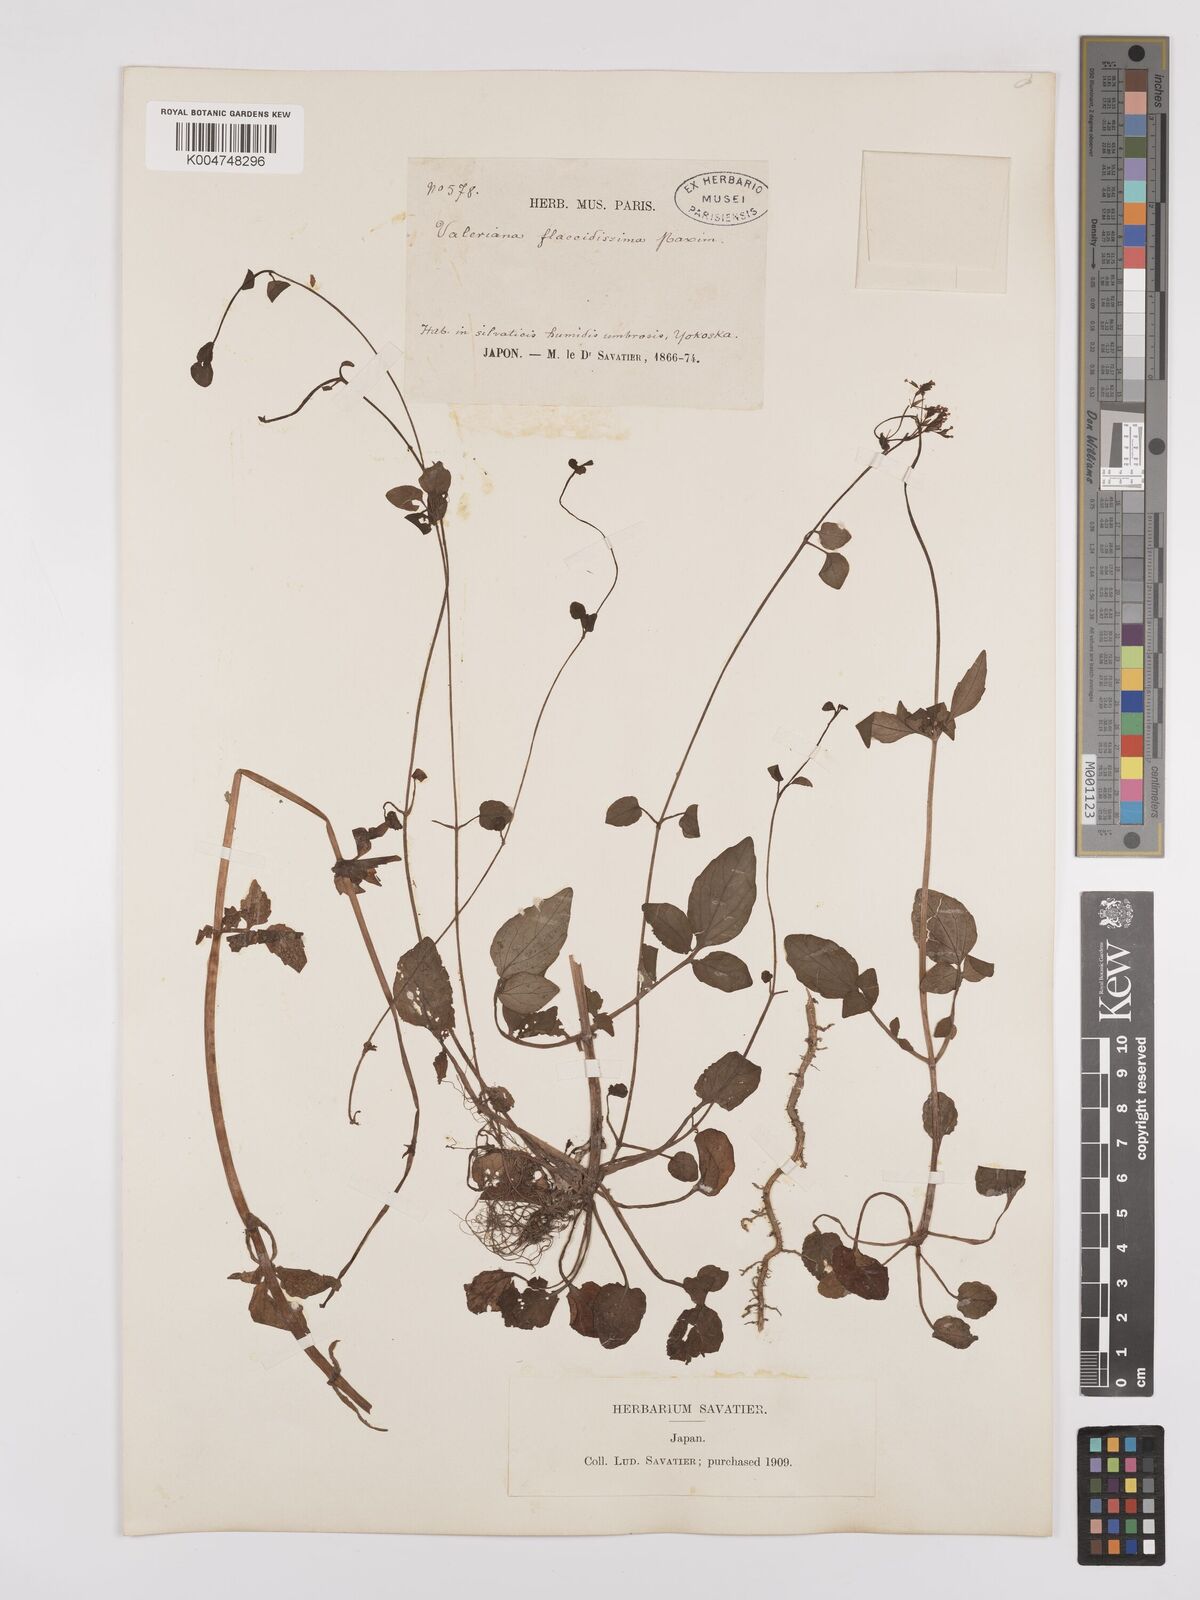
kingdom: Plantae
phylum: Tracheophyta
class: Magnoliopsida
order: Dipsacales
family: Caprifoliaceae
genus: Valeriana
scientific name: Valeriana flaccidissima
